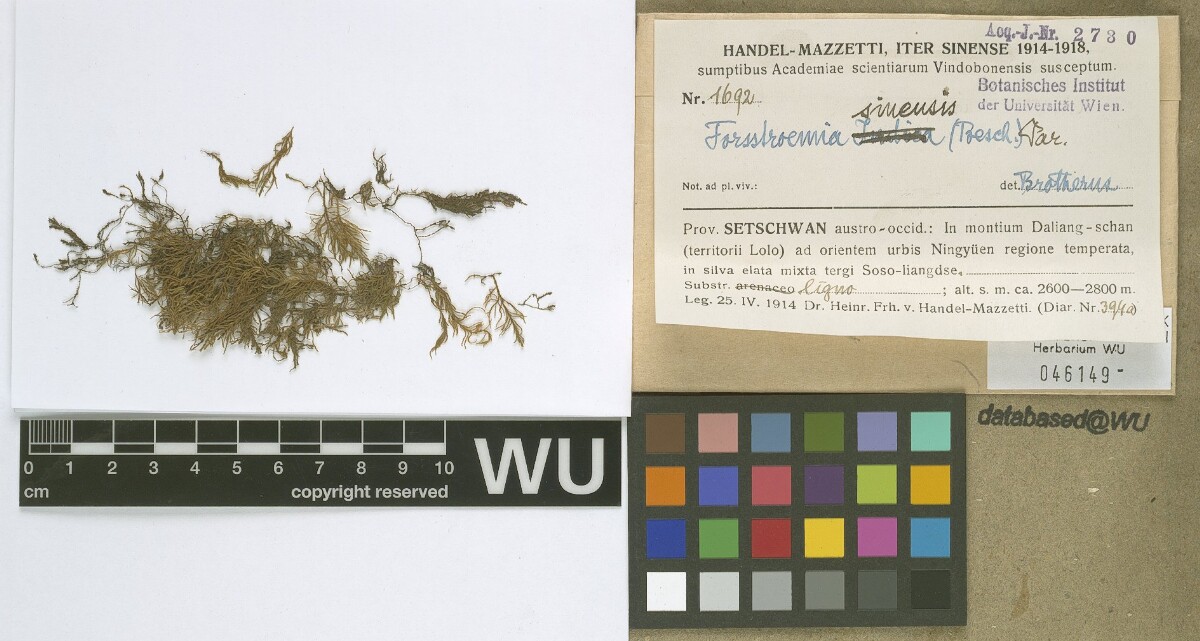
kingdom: Plantae
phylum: Bryophyta
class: Bryopsida
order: Hypnales
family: Neckeraceae
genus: Forsstroemia
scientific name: Forsstroemia producta
